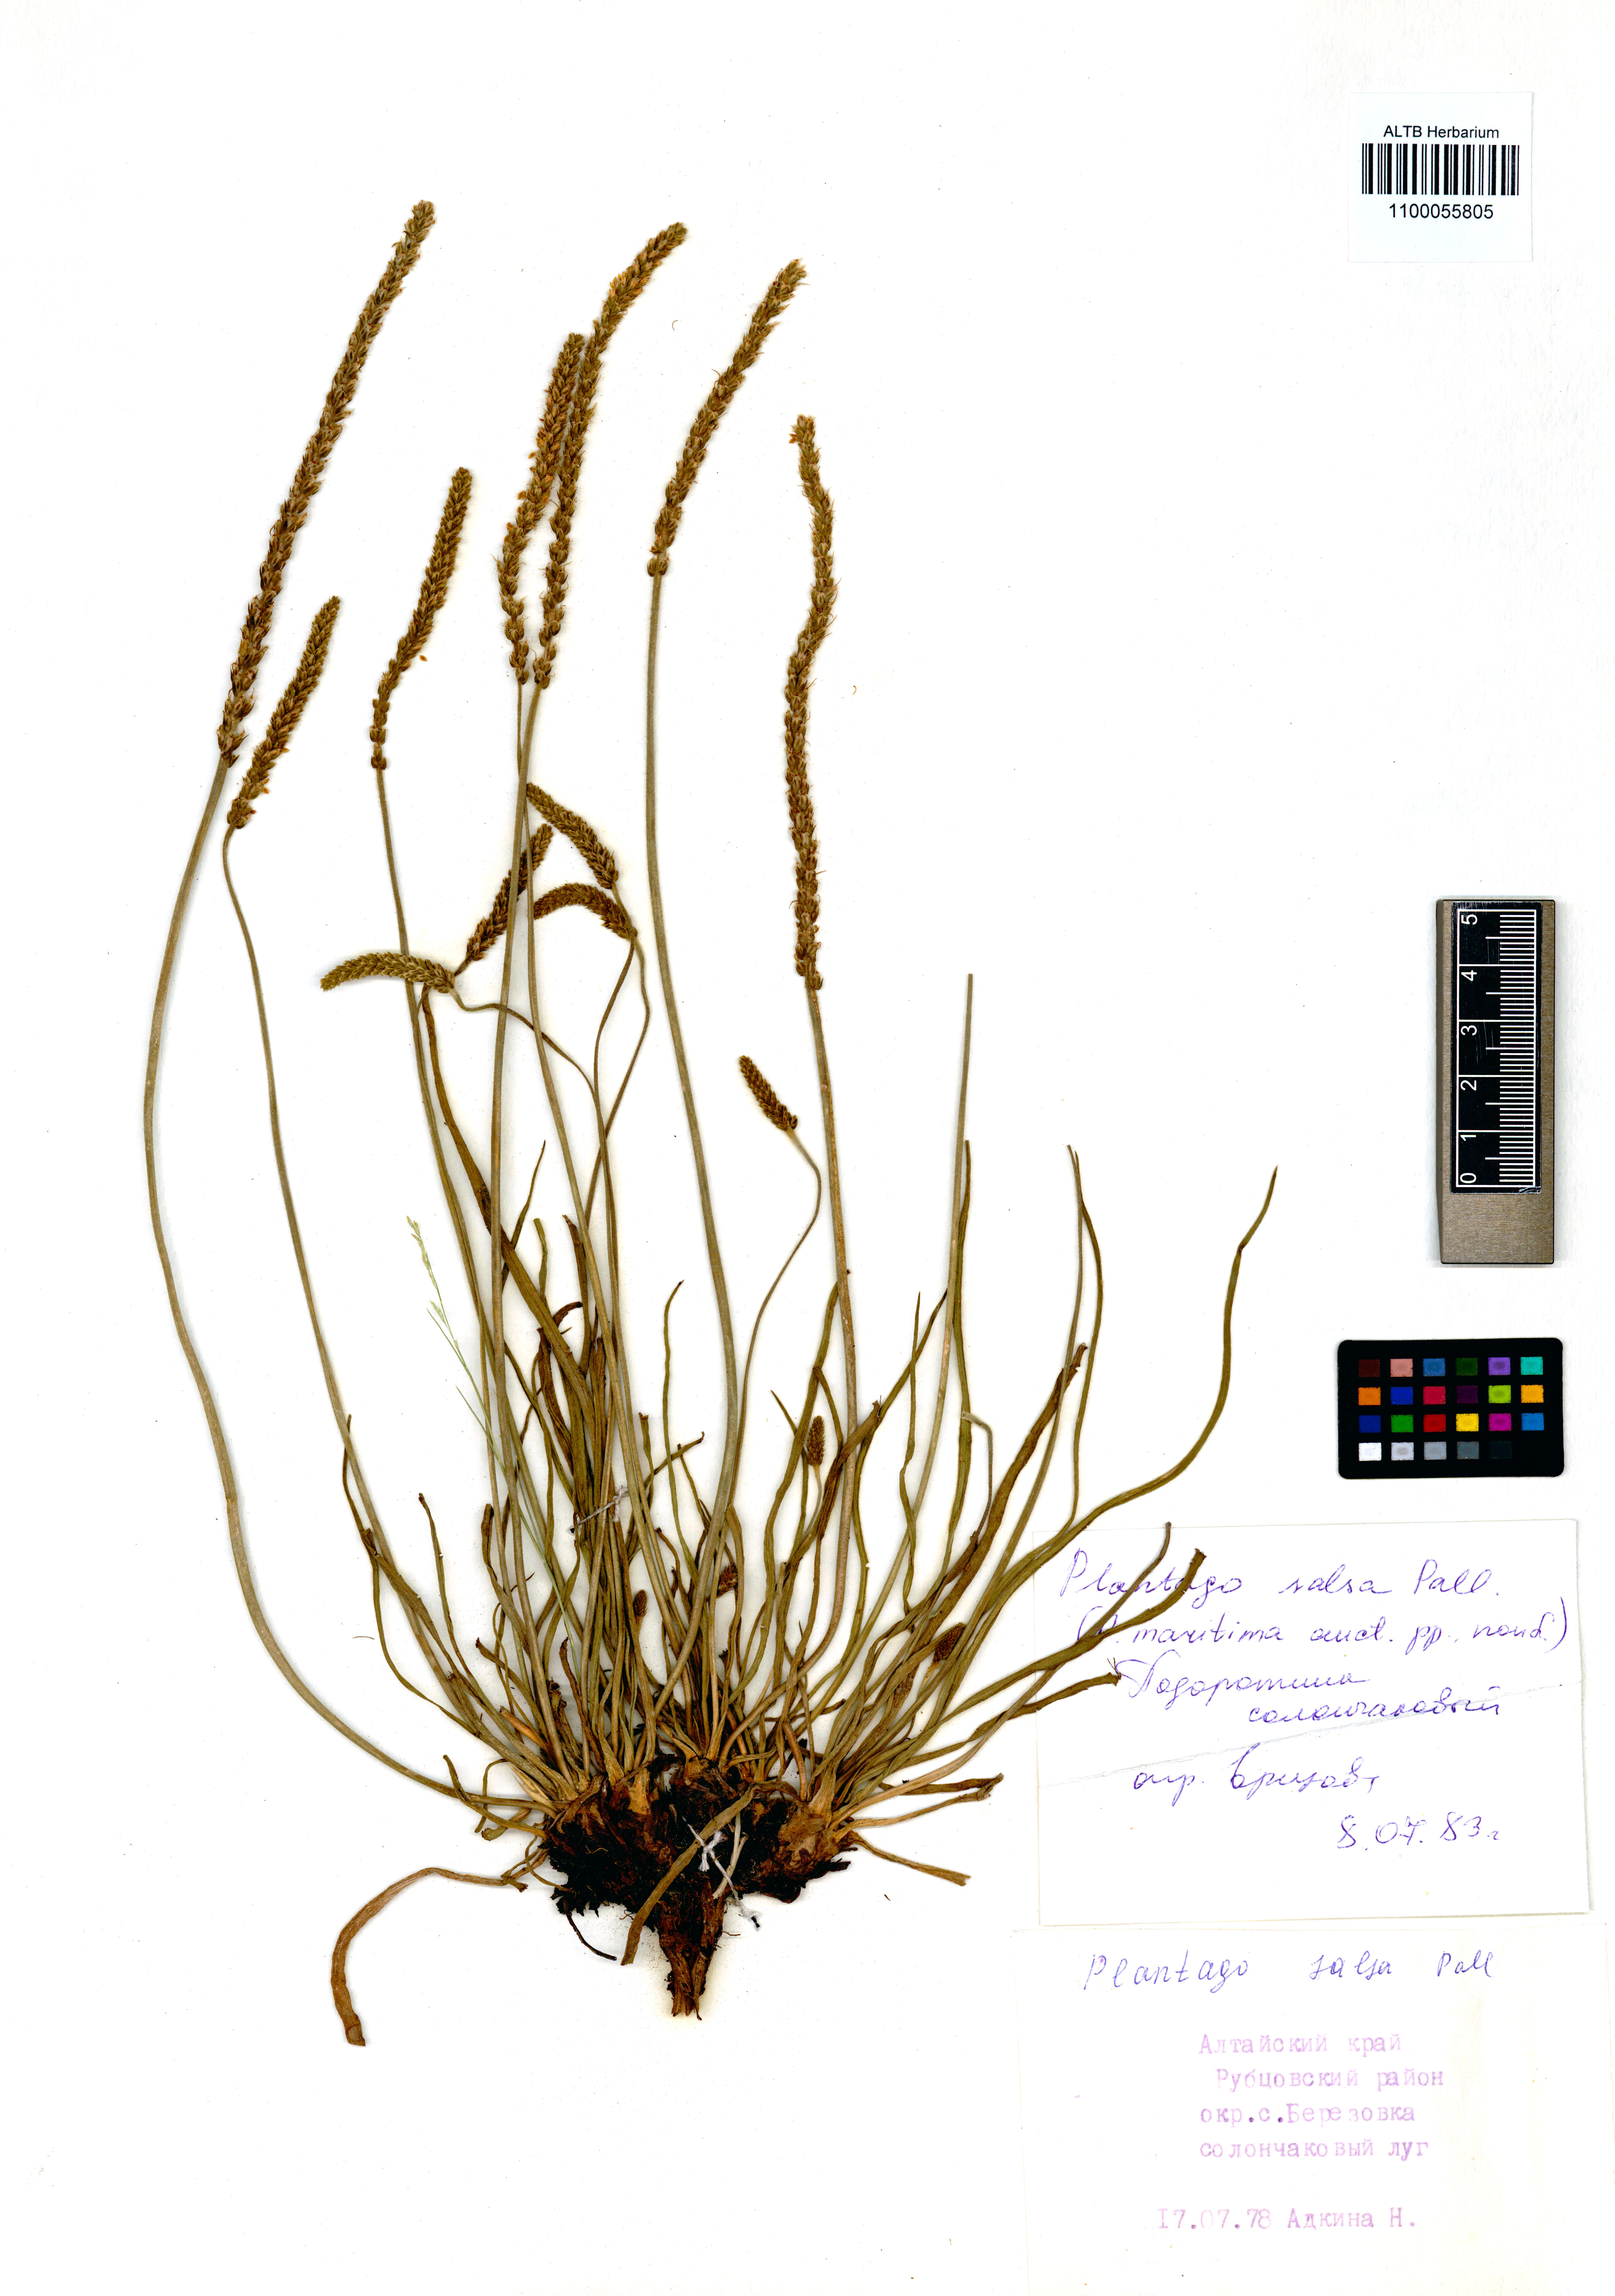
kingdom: Plantae
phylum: Tracheophyta
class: Magnoliopsida
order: Lamiales
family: Plantaginaceae
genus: Plantago
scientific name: Plantago salsa
